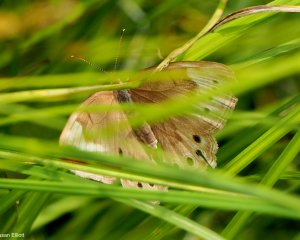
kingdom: Animalia
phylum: Arthropoda
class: Insecta
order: Lepidoptera
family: Nymphalidae
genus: Lethe
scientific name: Lethe eurydice
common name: Eyed Brown
